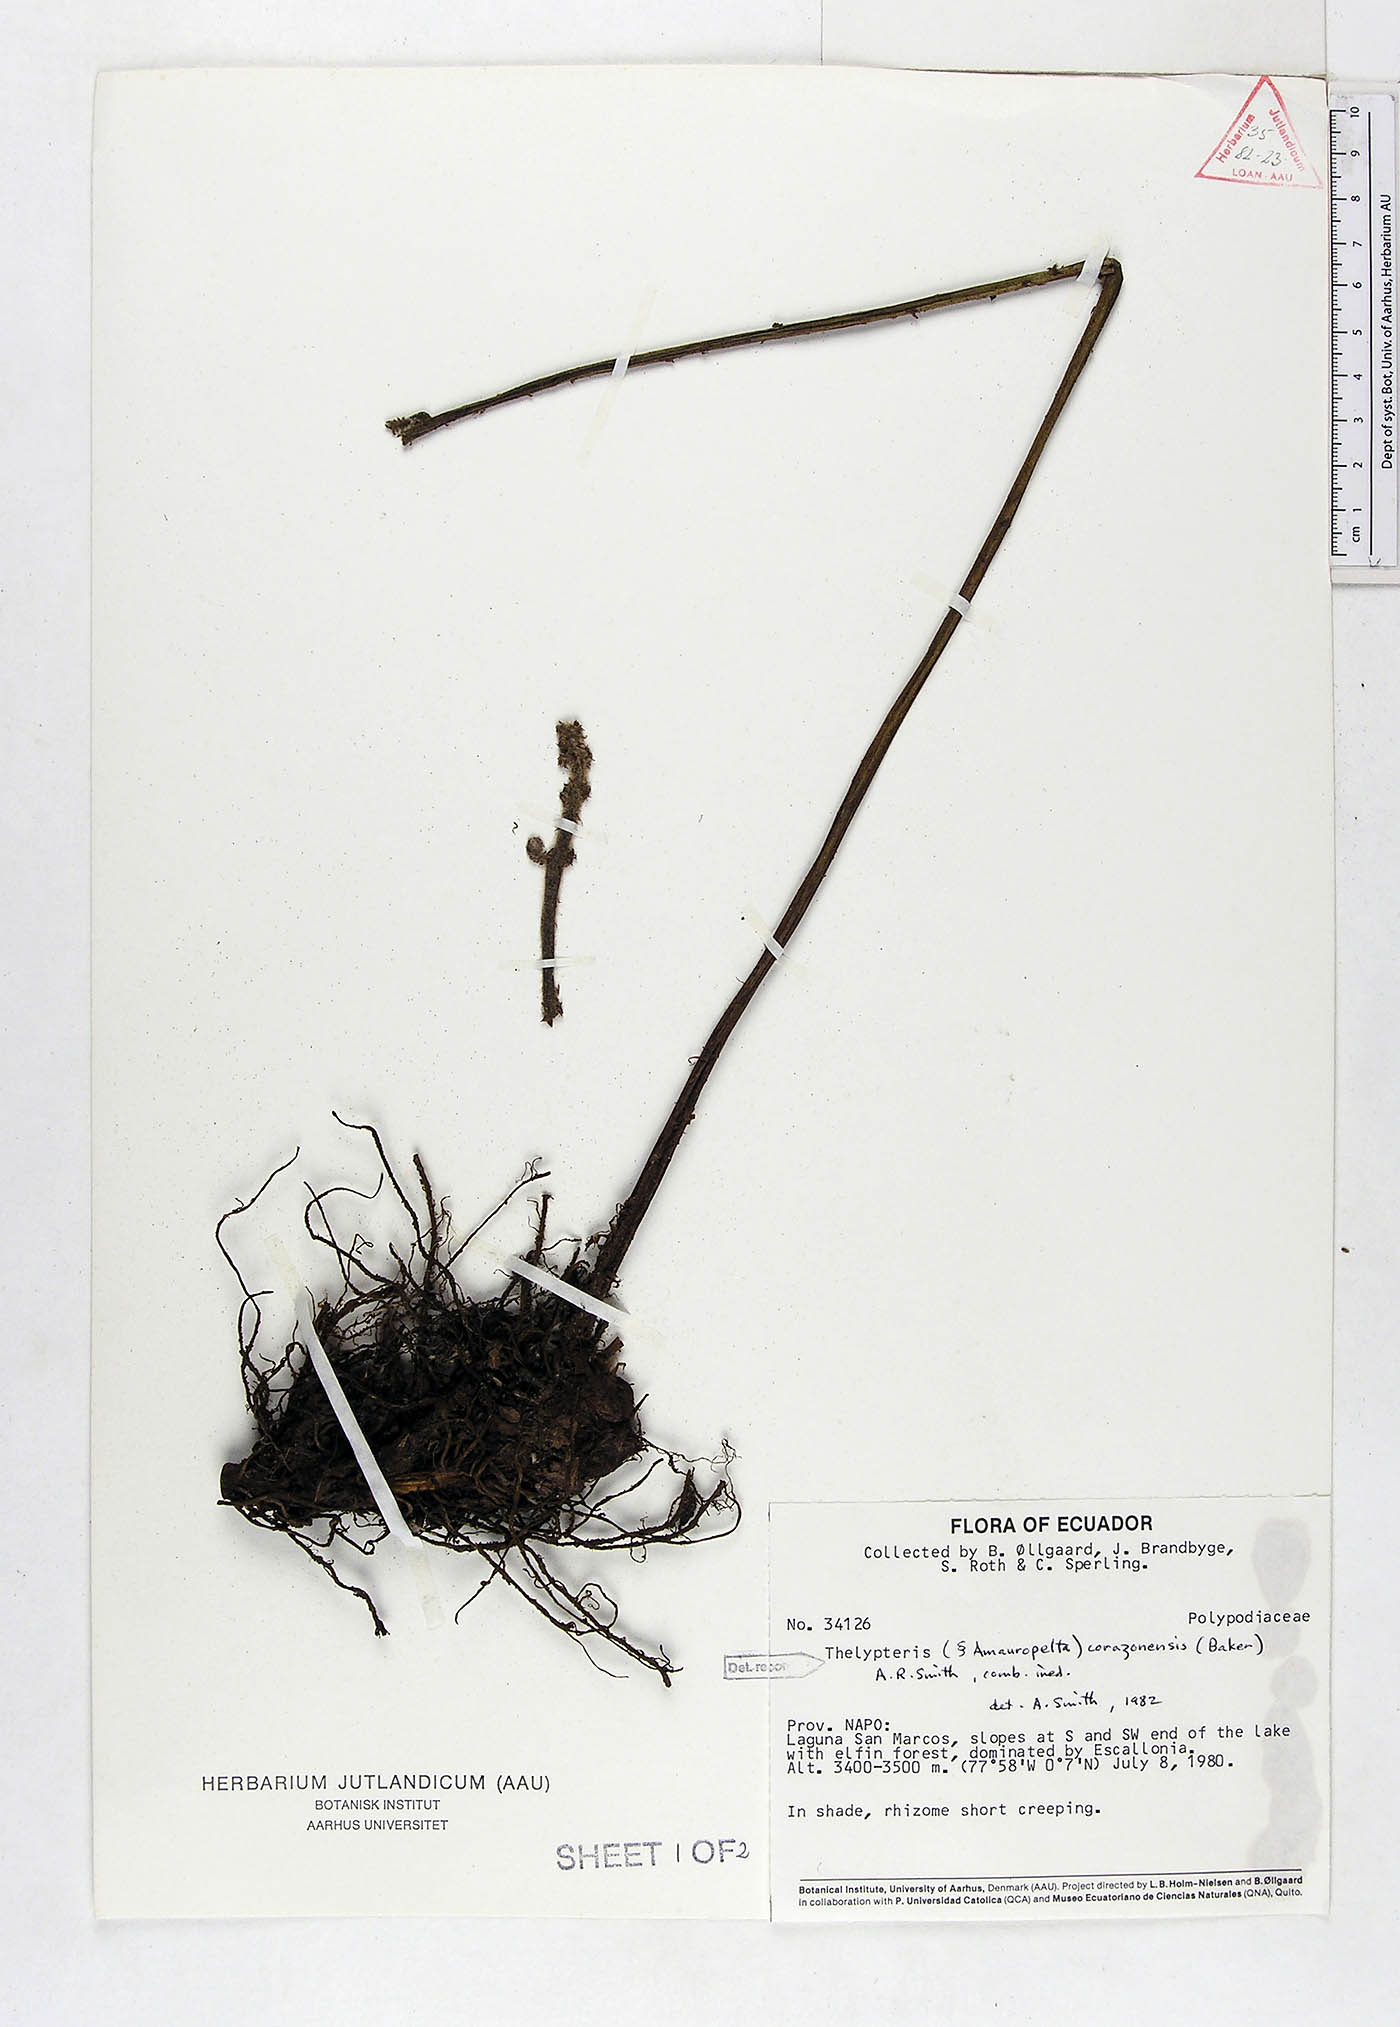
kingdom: Plantae
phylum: Tracheophyta
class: Polypodiopsida
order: Polypodiales
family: Thelypteridaceae
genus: Amauropelta
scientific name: Amauropelta corazonensis
